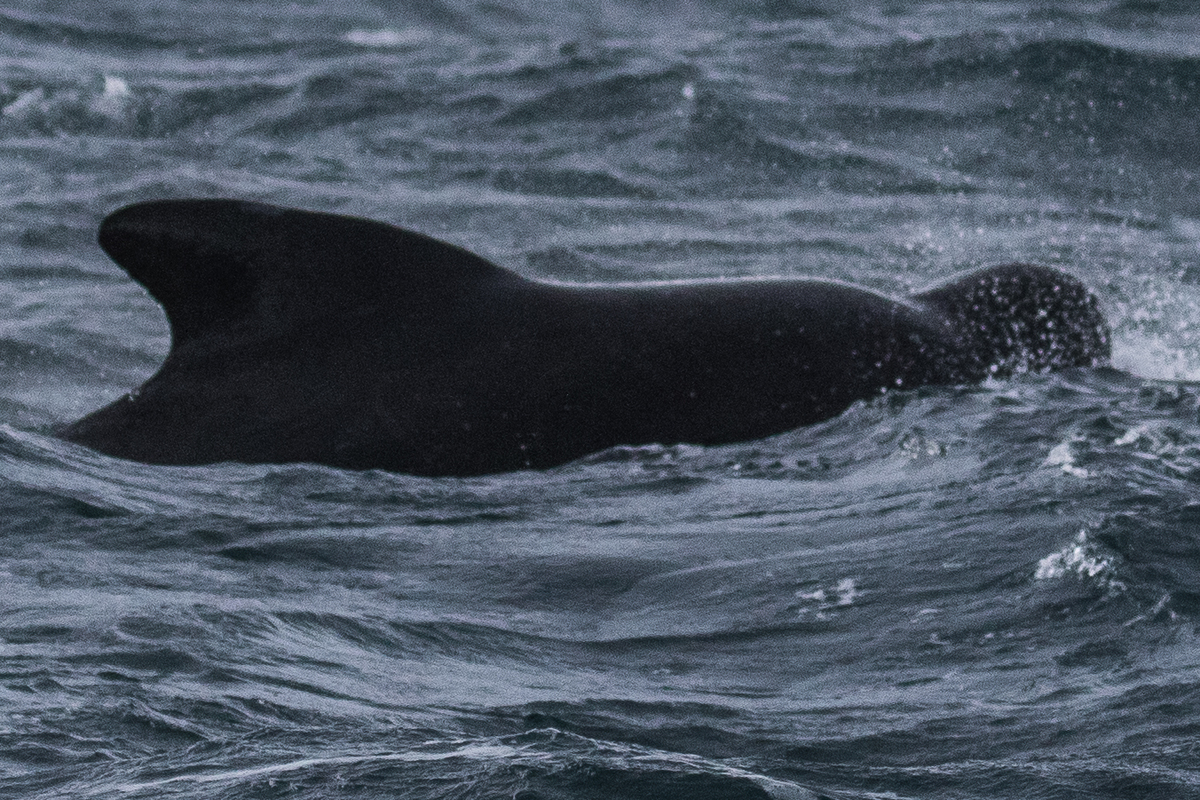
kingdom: Animalia
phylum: Chordata
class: Mammalia
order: Cetacea
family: Delphinidae
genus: Globicephala
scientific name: Globicephala melas
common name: Long-finned pilot whale
